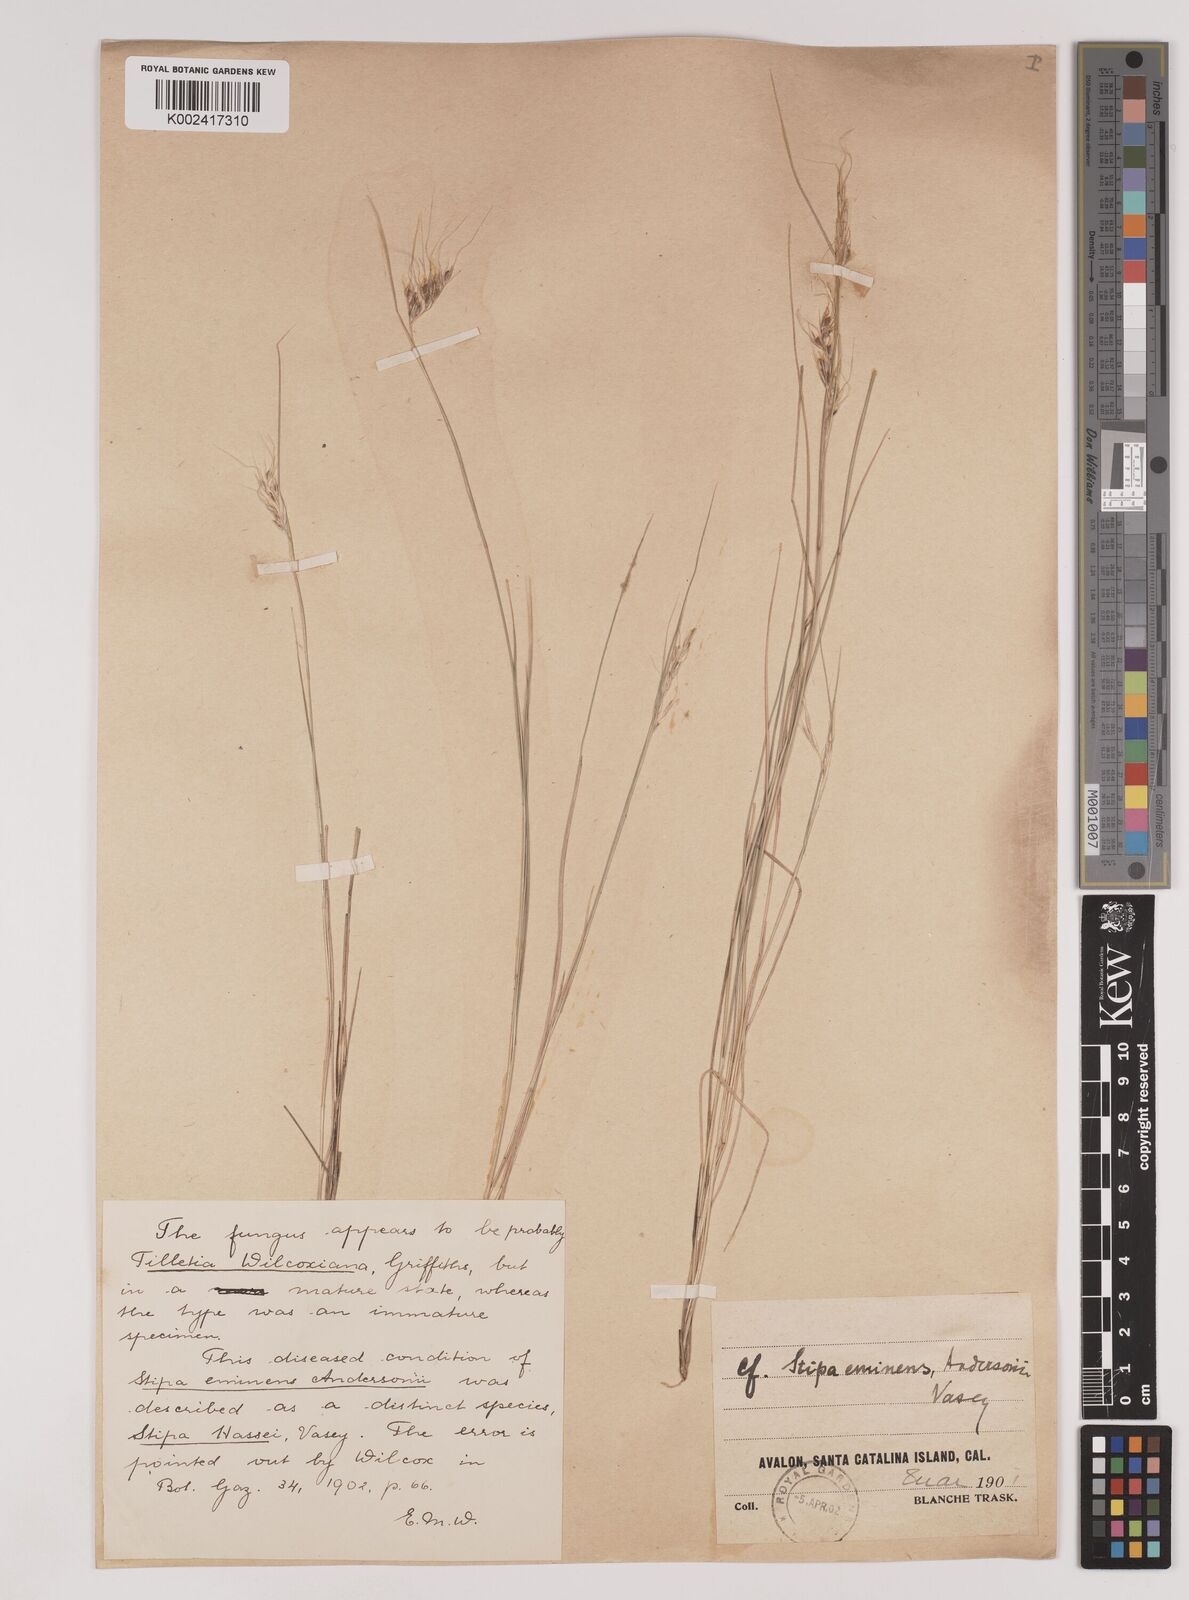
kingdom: Plantae
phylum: Tracheophyta
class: Liliopsida
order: Poales
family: Poaceae
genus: Nassella
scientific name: Nassella lepida
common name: Foothill needlegrass
